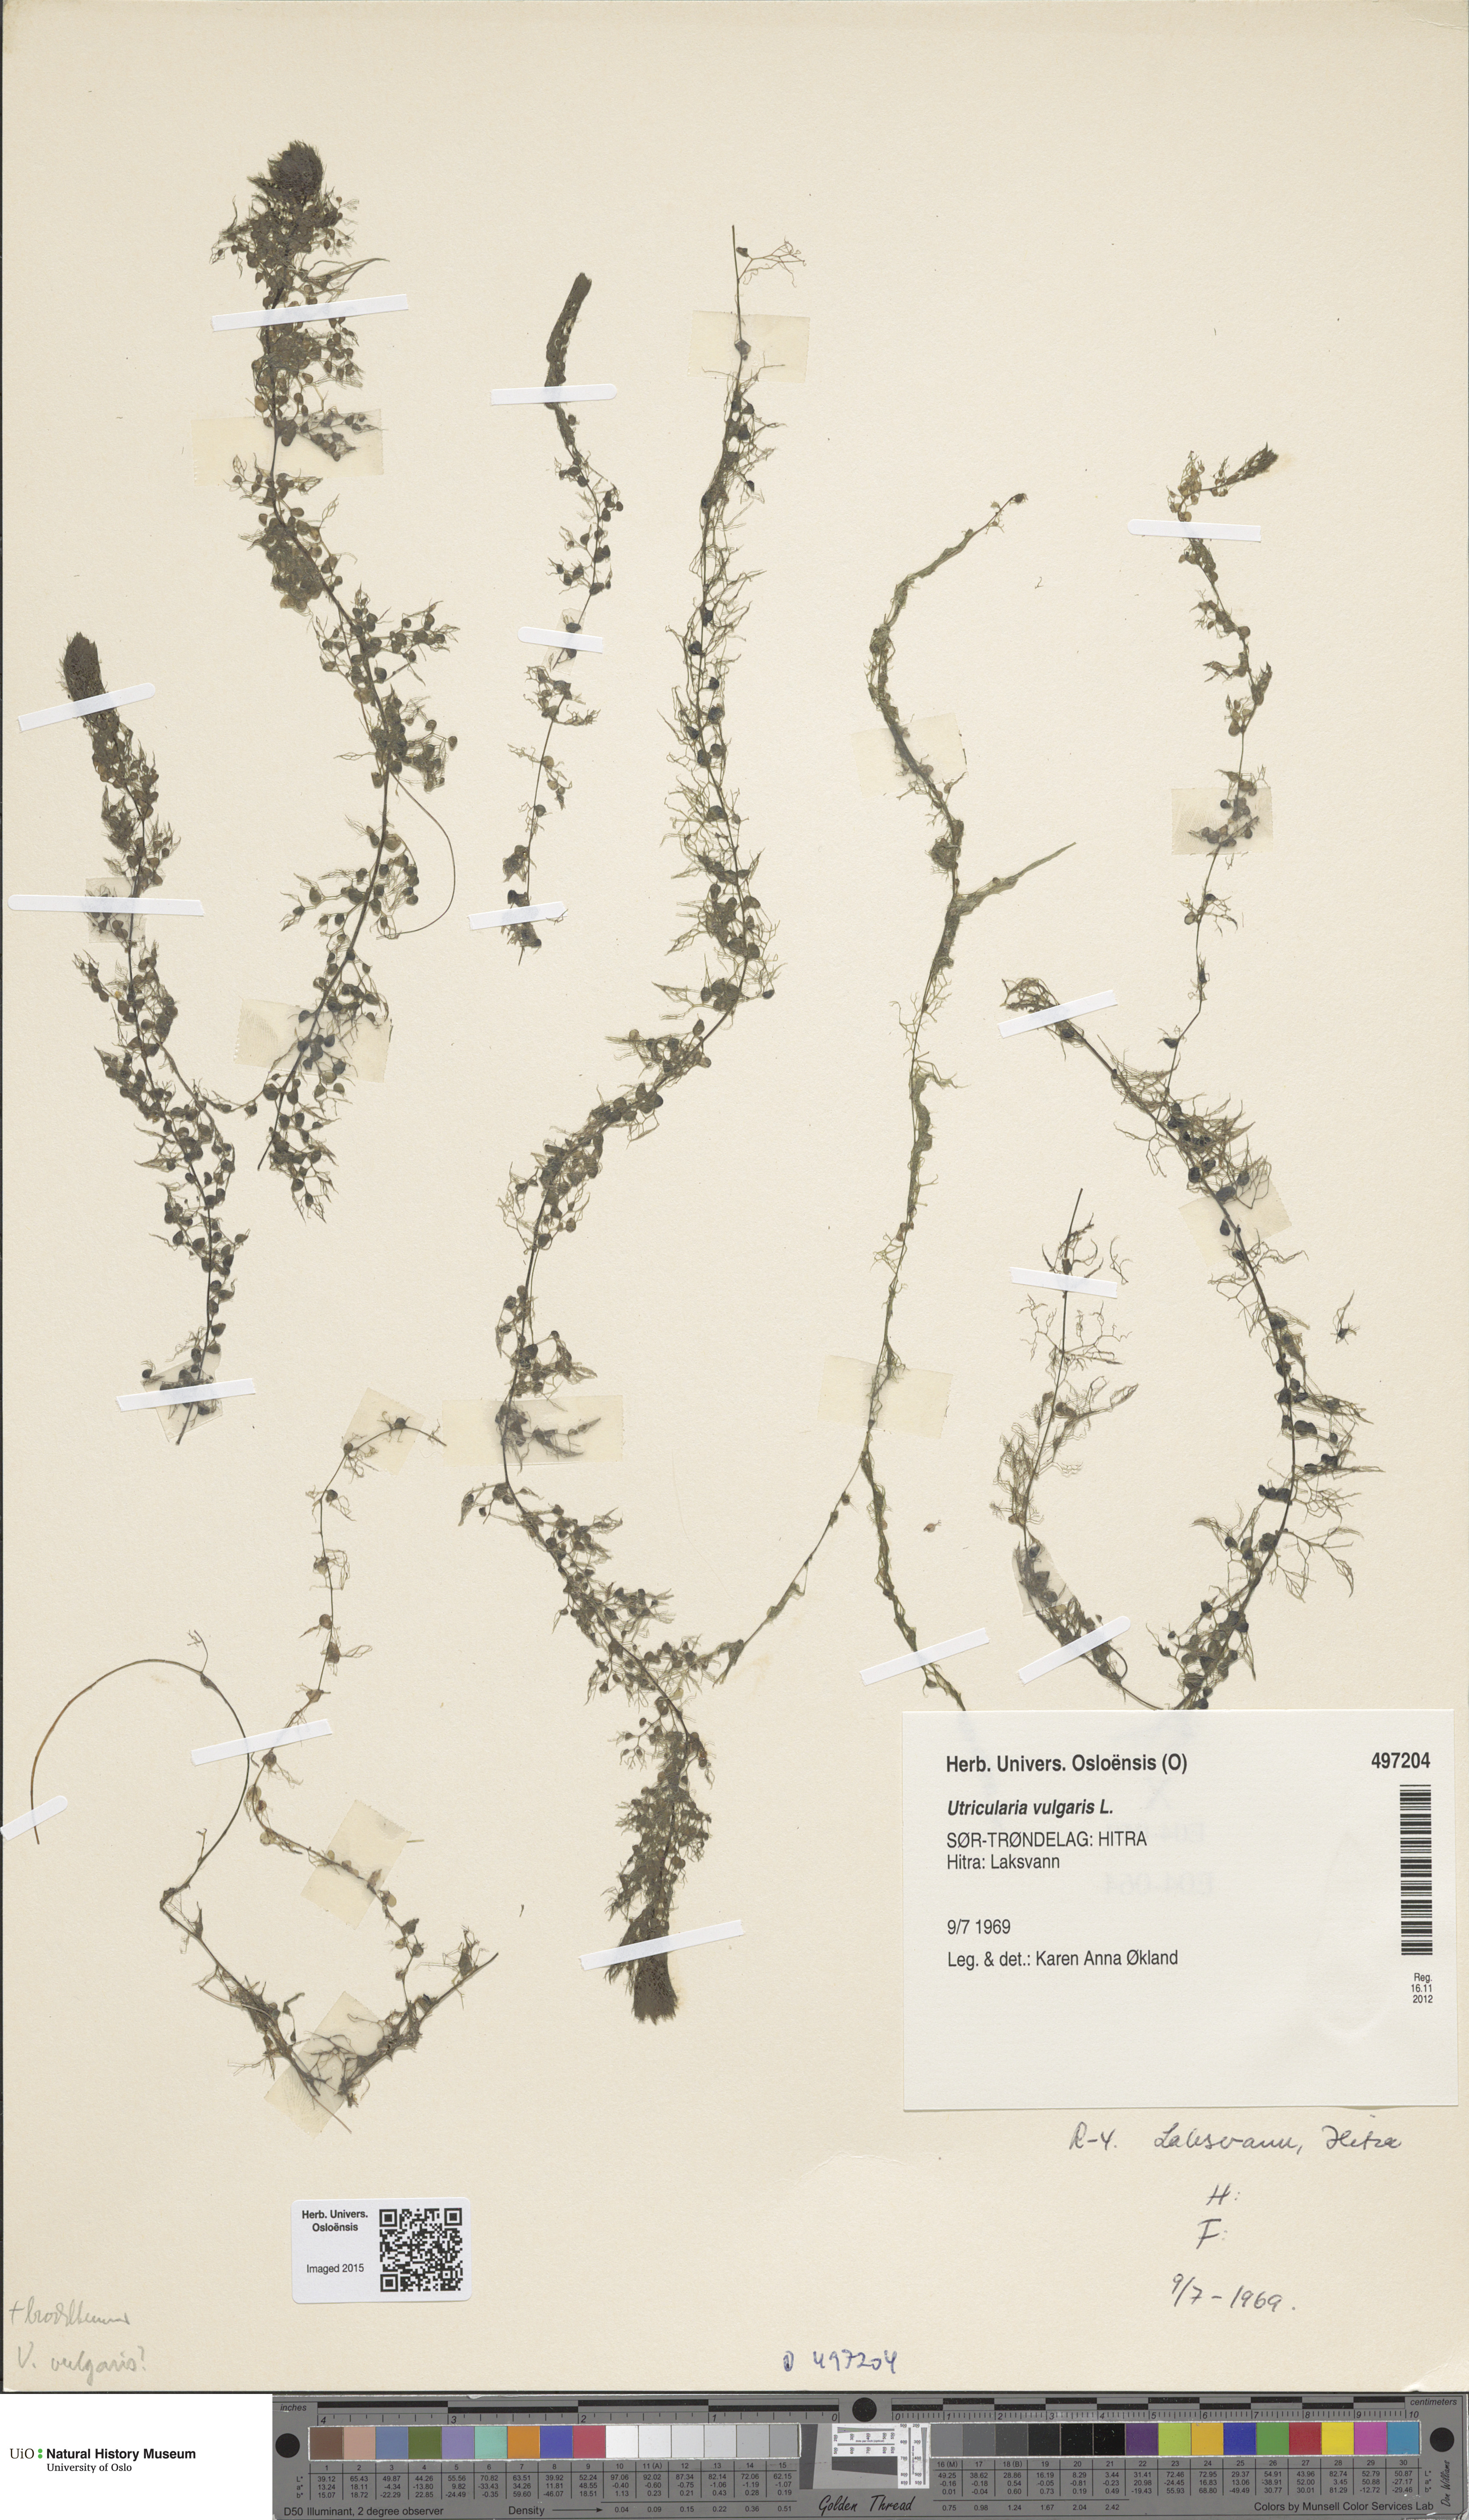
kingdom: Plantae
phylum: Tracheophyta
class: Magnoliopsida
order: Lamiales
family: Lentibulariaceae
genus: Utricularia
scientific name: Utricularia vulgaris
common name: Greater bladderwort
